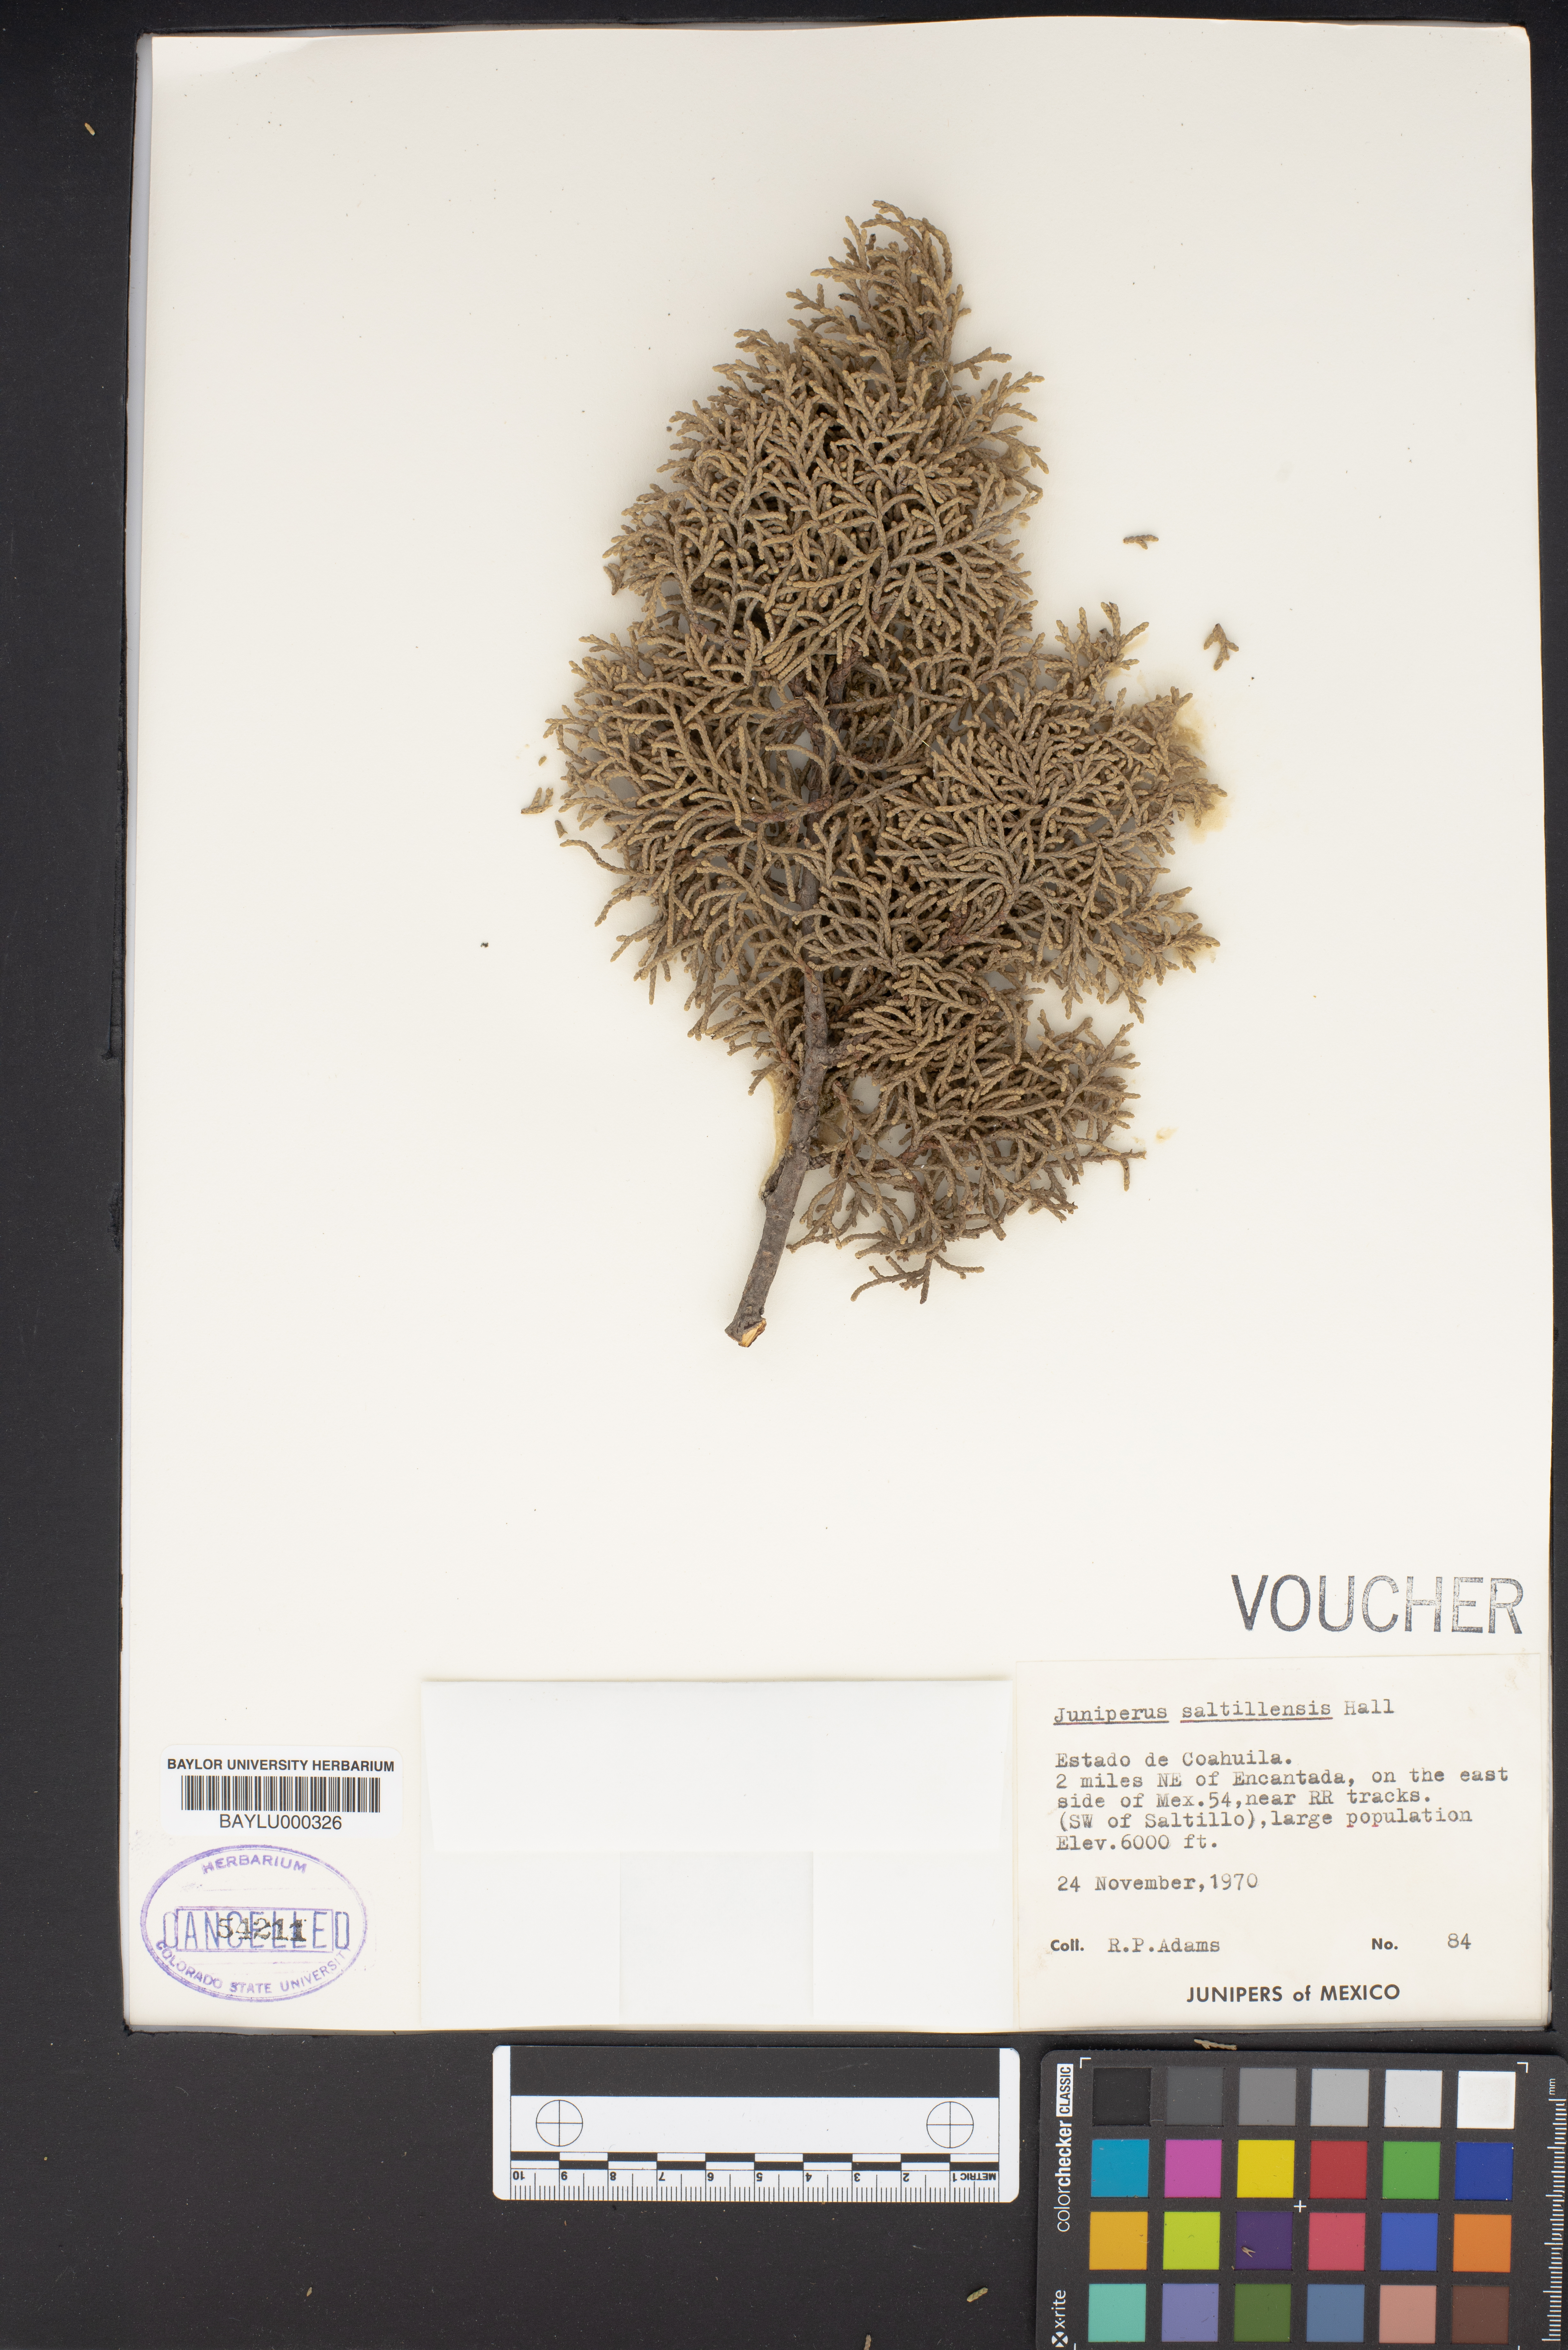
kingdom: Plantae
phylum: Tracheophyta
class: Pinopsida
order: Pinales
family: Cupressaceae
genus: Juniperus
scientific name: Juniperus saltillensis
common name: Saltillo juniper
